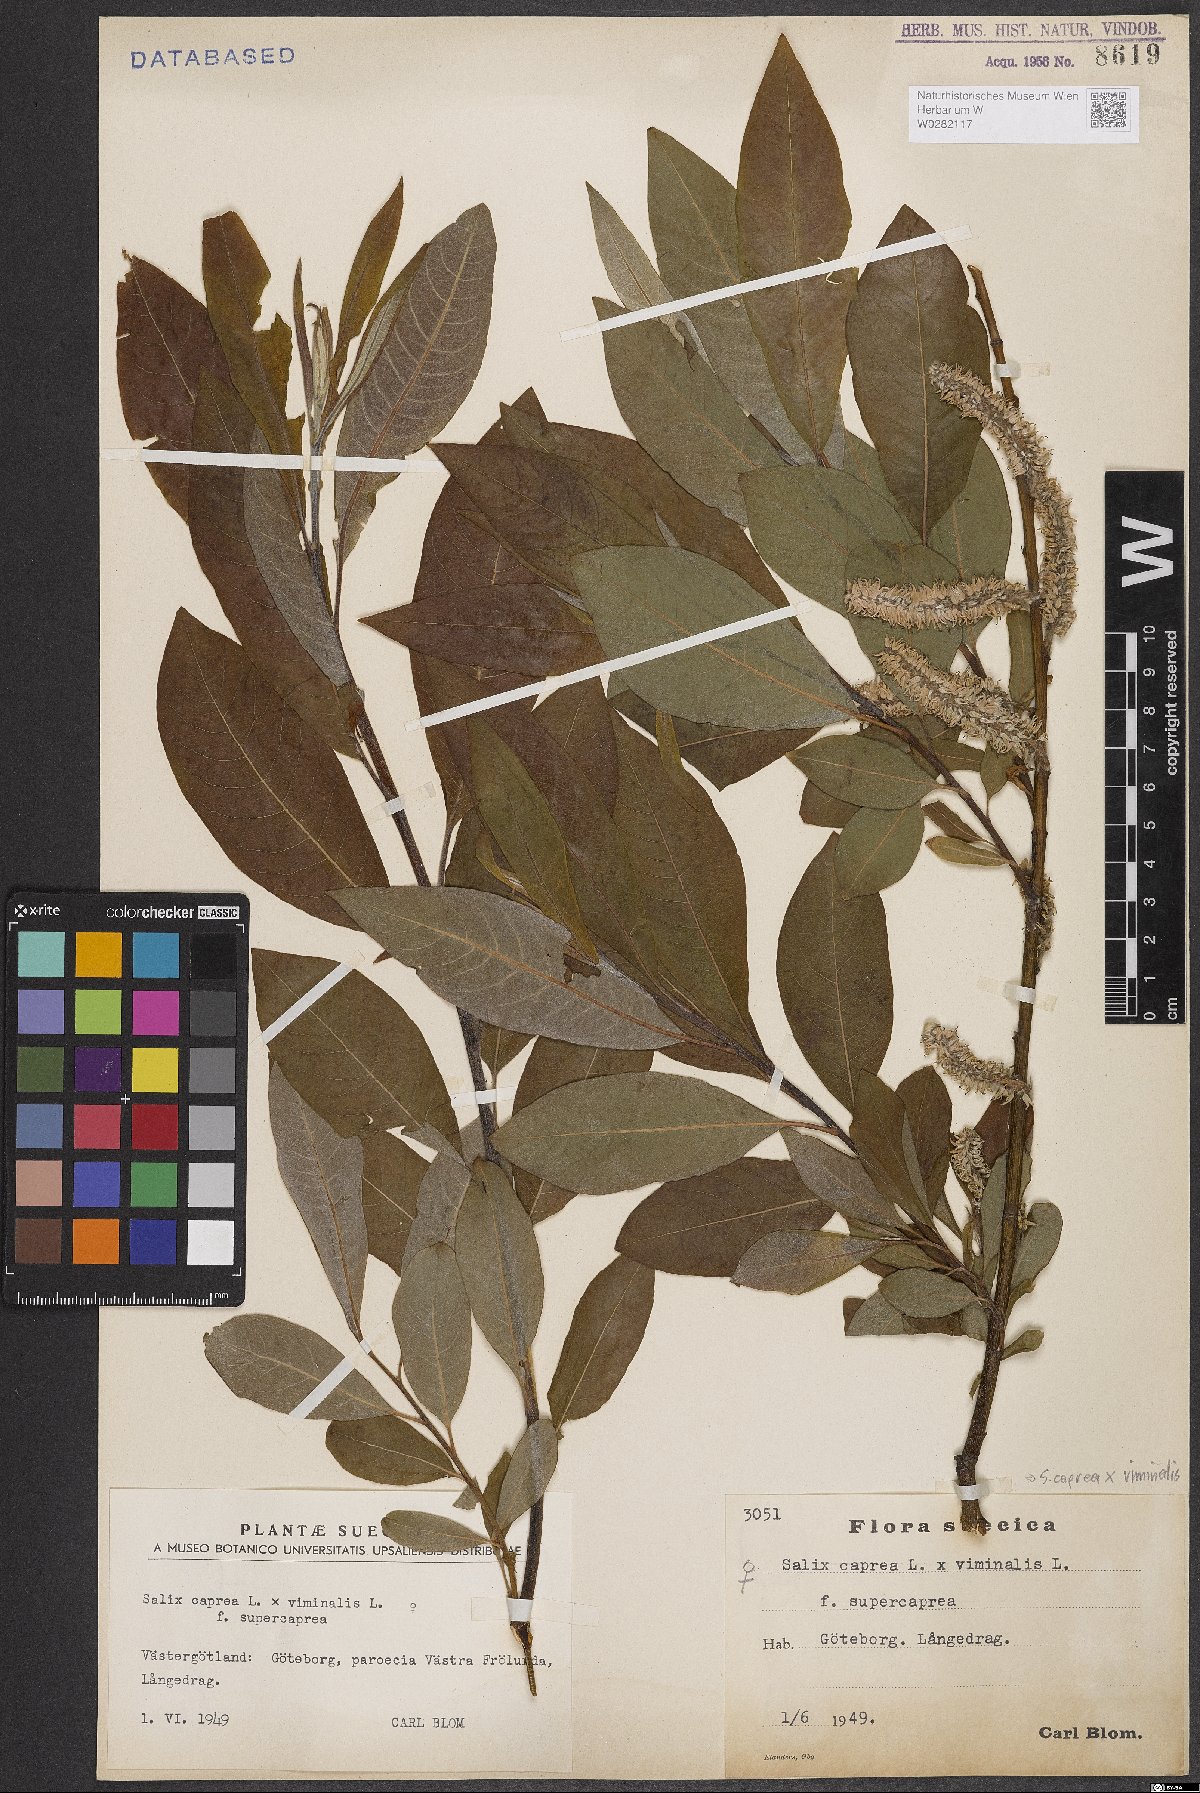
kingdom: Plantae
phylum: Tracheophyta
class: Magnoliopsida
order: Malpighiales
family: Salicaceae
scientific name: Salicaceae
